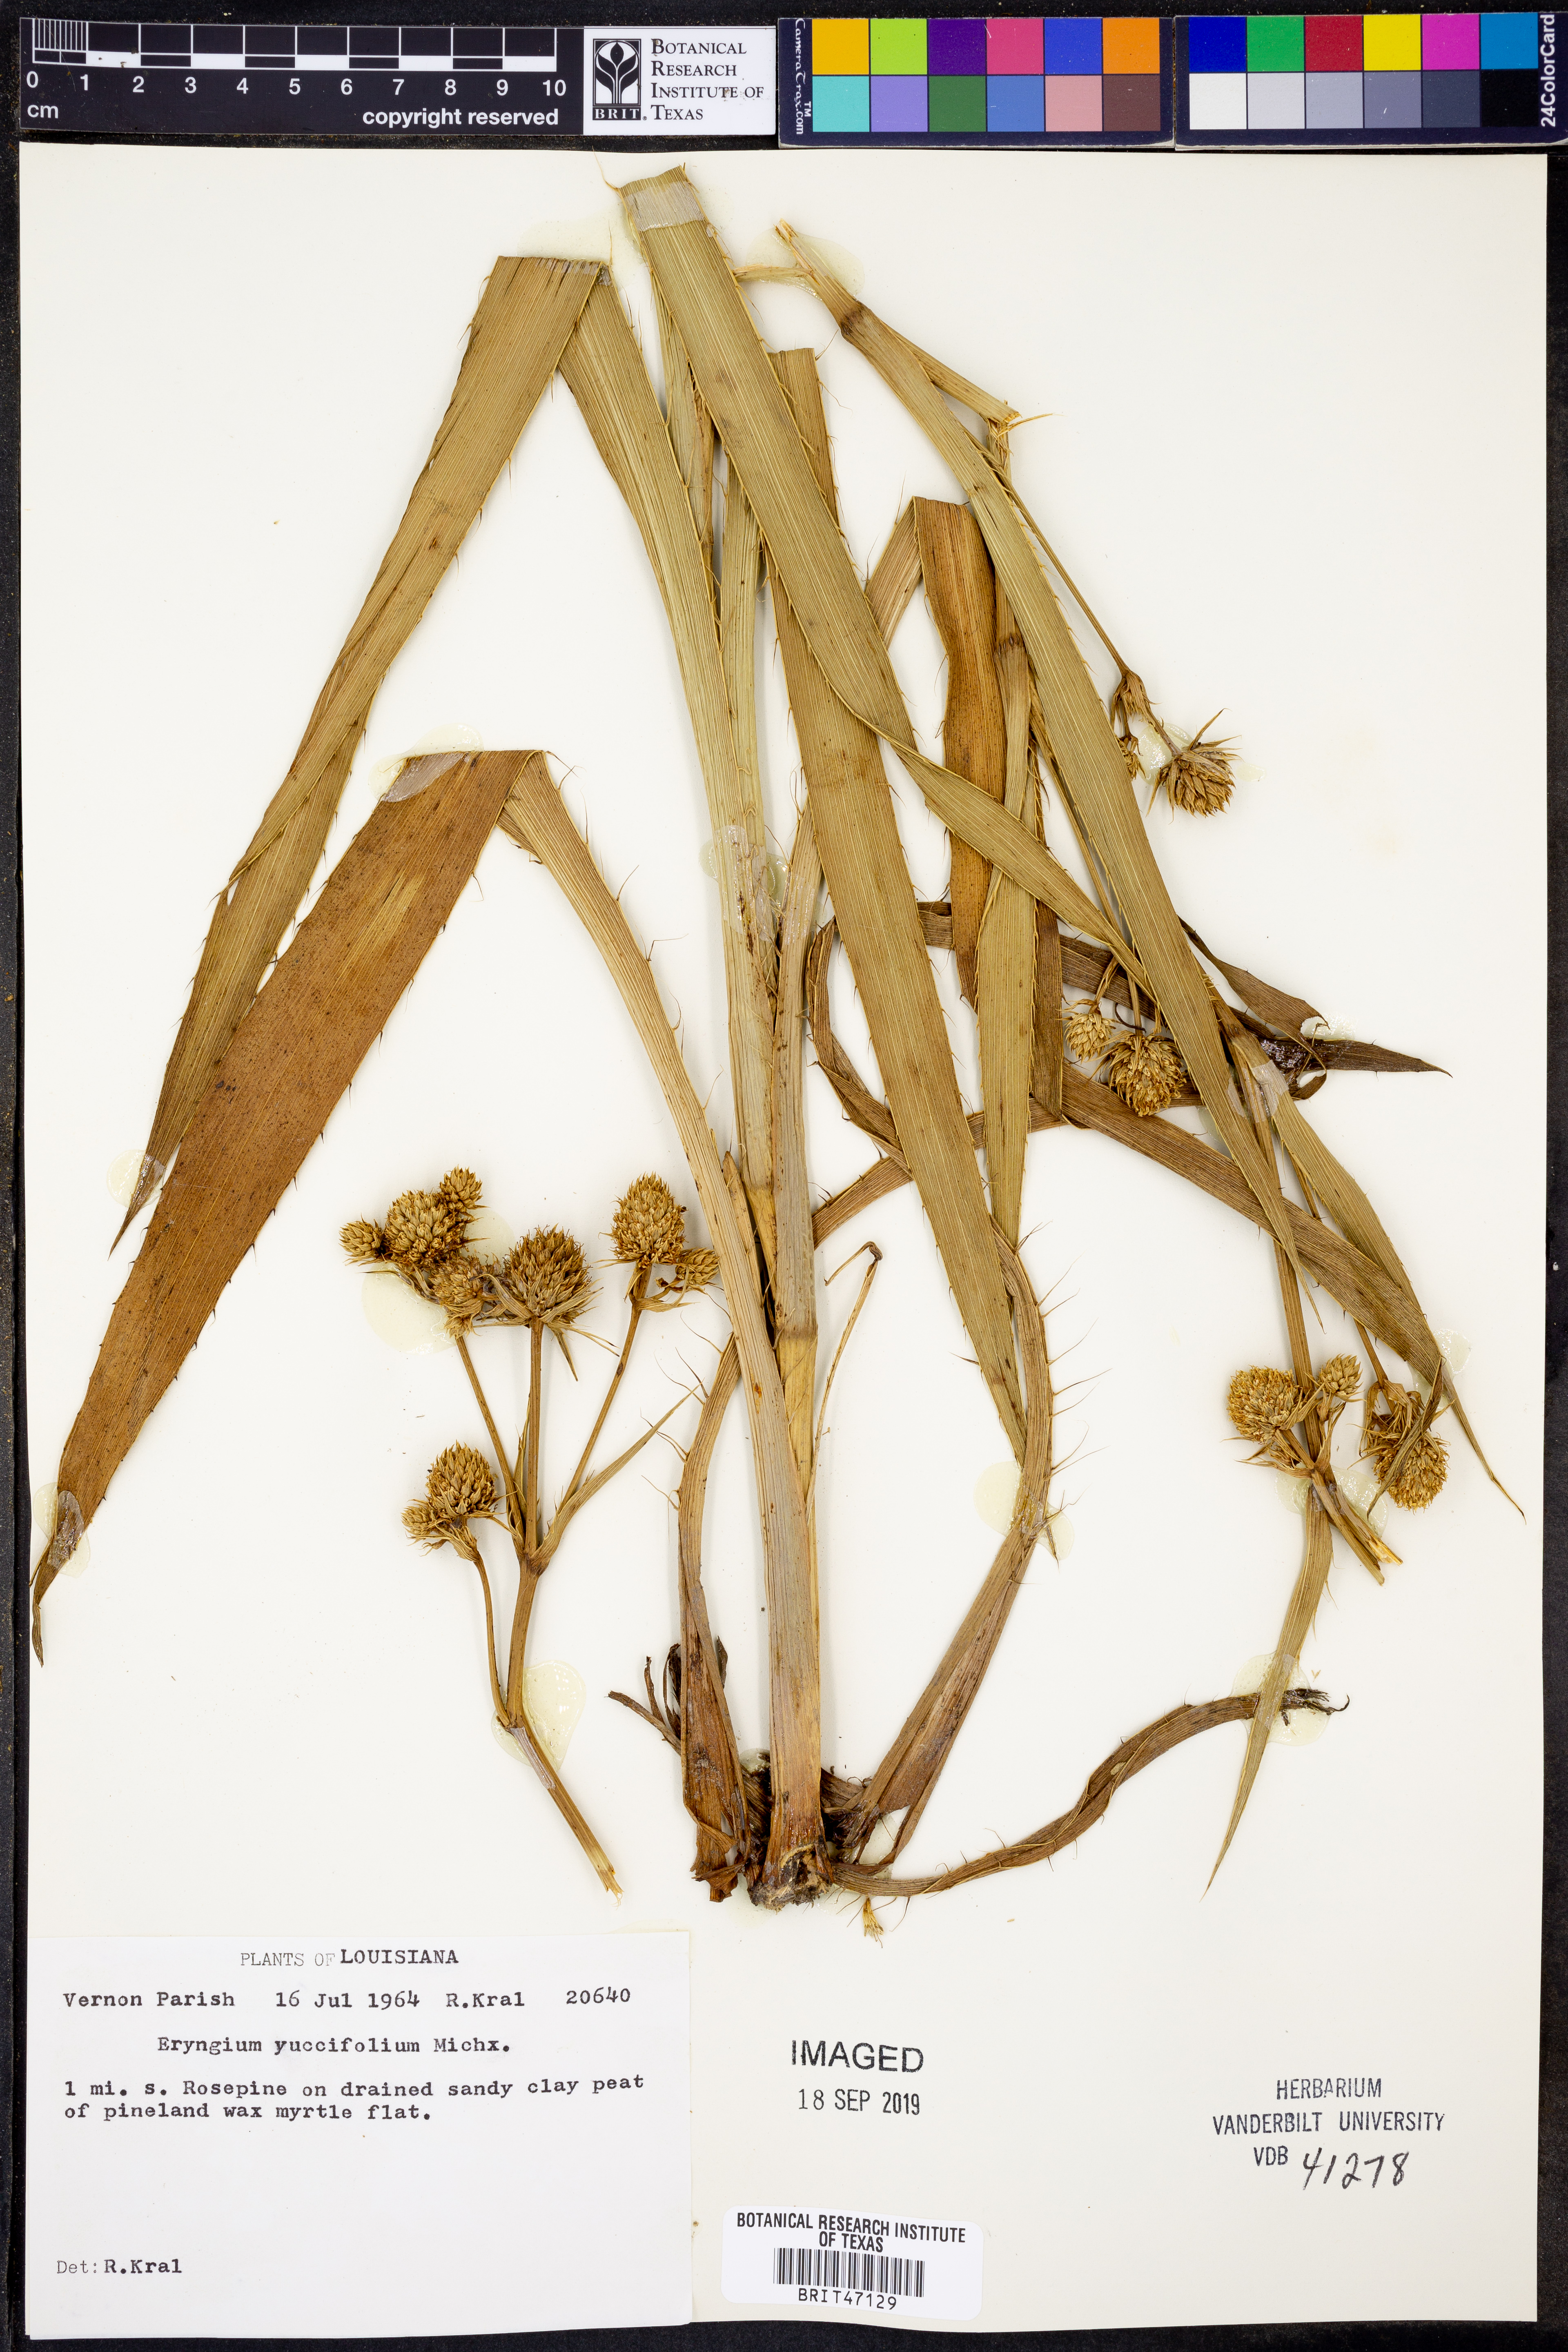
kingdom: Plantae
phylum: Tracheophyta
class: Magnoliopsida
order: Apiales
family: Apiaceae
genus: Eryngium
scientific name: Eryngium yuccifolium
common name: Button eryngo
